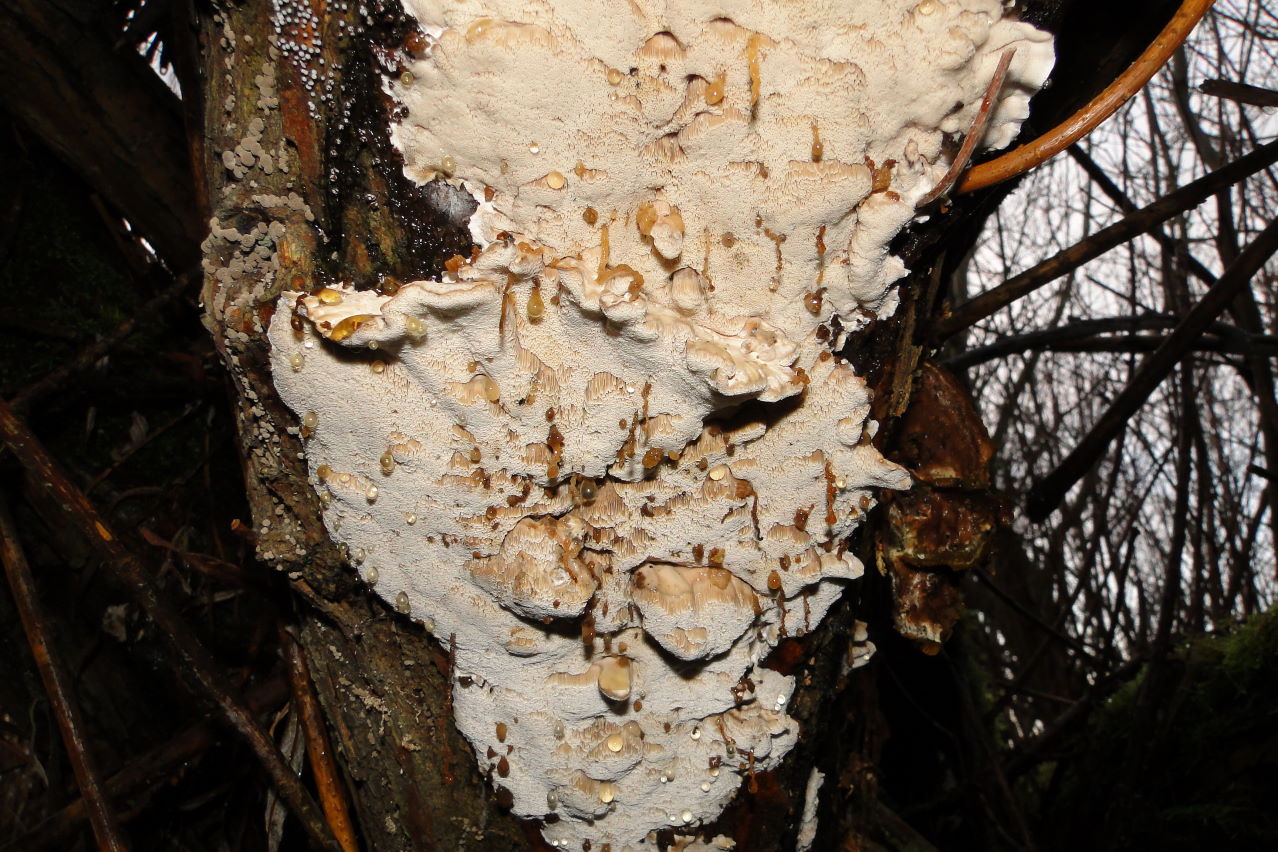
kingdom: Fungi
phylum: Basidiomycota
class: Agaricomycetes
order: Polyporales
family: Phanerochaetaceae
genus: Bjerkandera
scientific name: Bjerkandera fumosa
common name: grågul sodporesvamp
